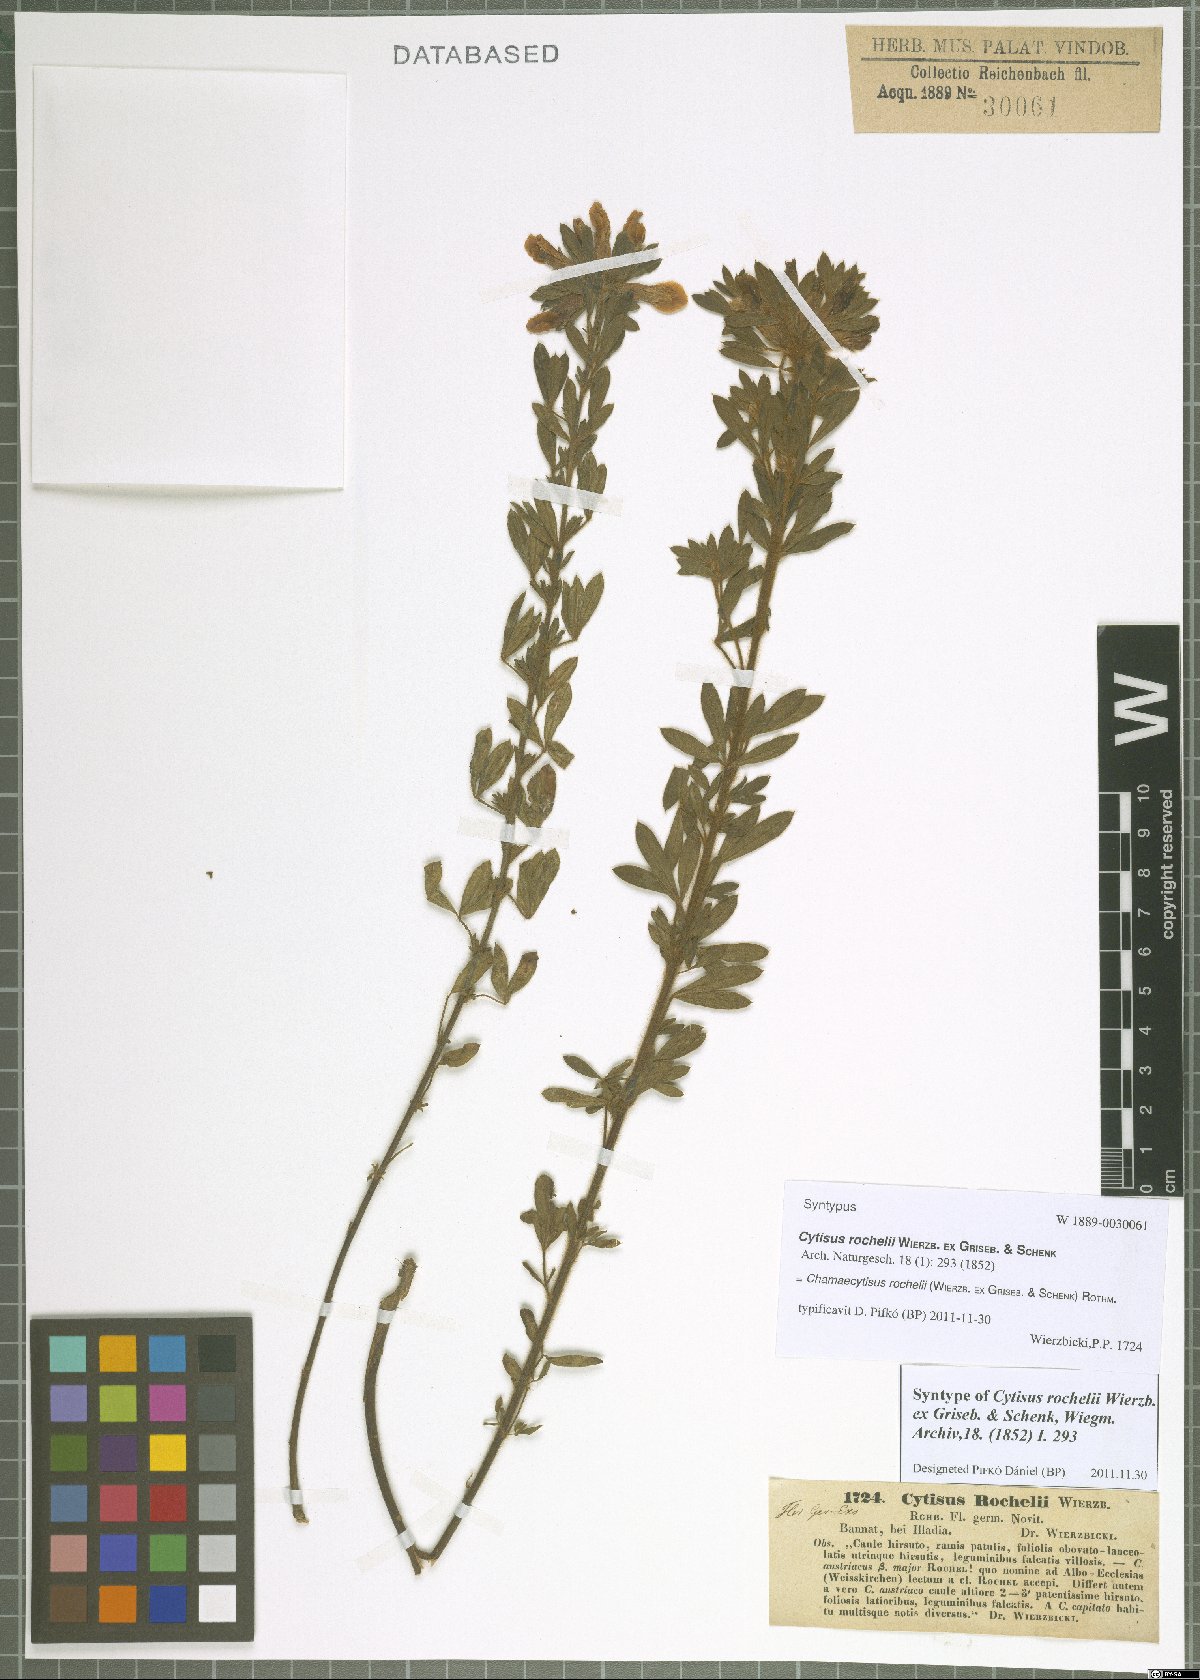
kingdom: Plantae
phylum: Tracheophyta
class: Magnoliopsida
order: Fabales
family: Fabaceae
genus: Chamaecytisus
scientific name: Chamaecytisus rochelii
